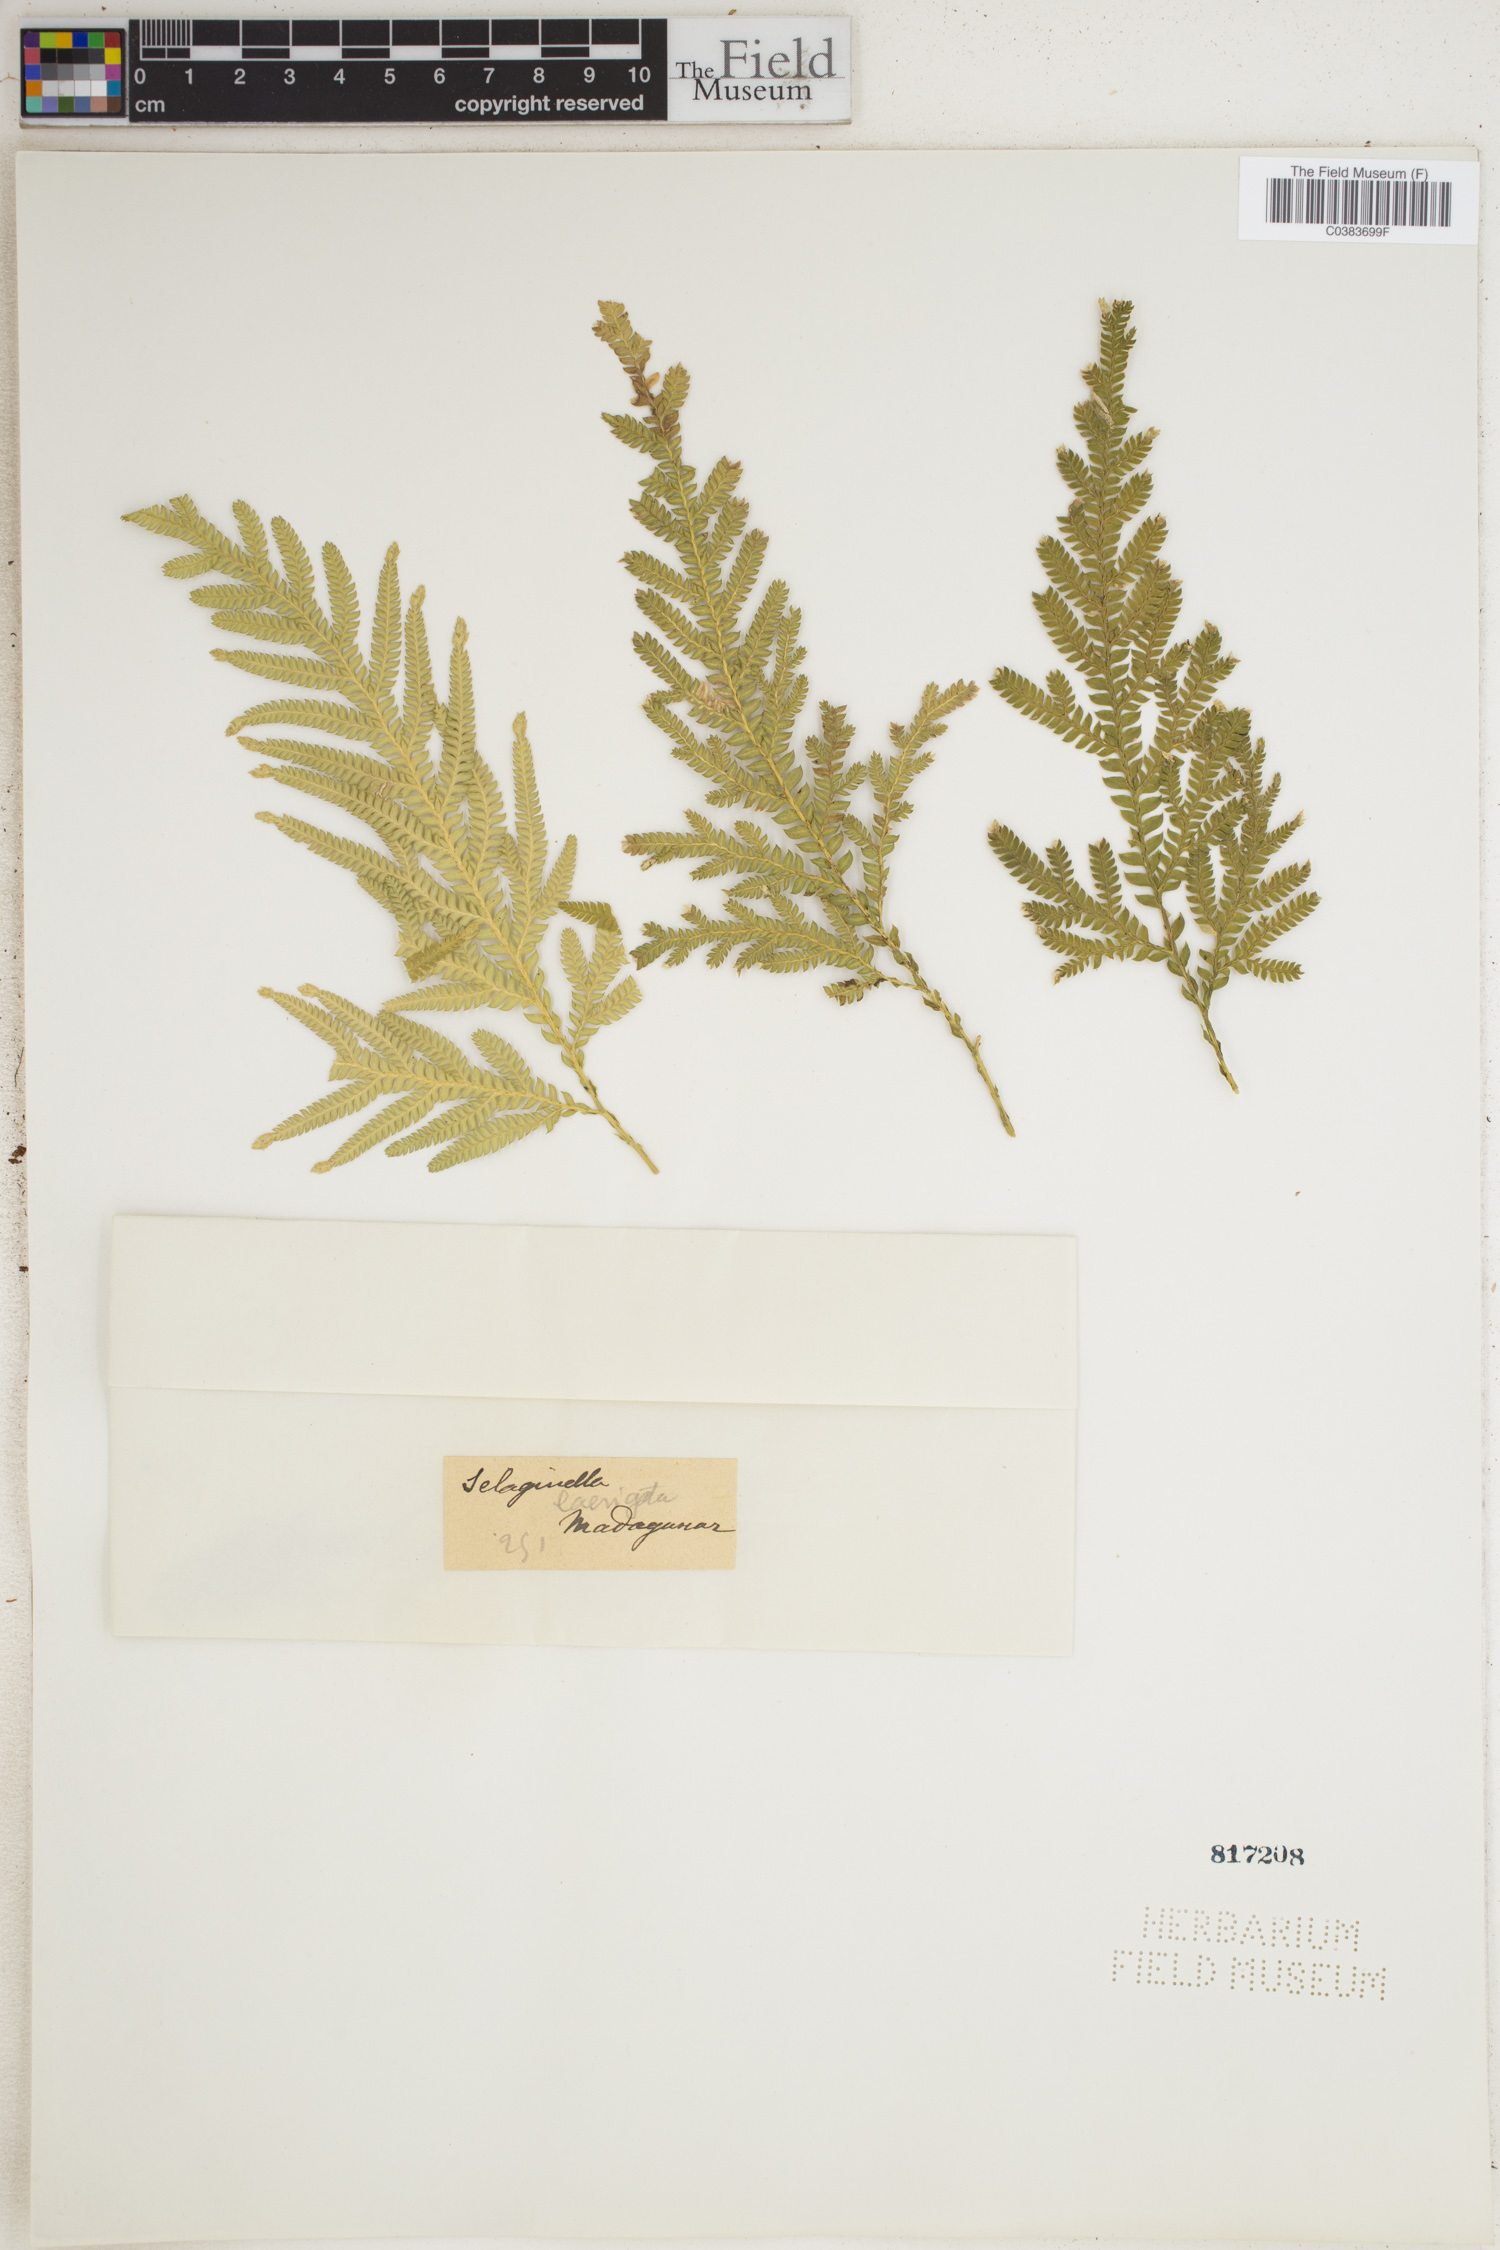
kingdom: Plantae
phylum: Tracheophyta
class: Lycopodiopsida
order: Selaginellales
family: Selaginellaceae
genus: Selaginella
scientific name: Selaginella polymorpha
